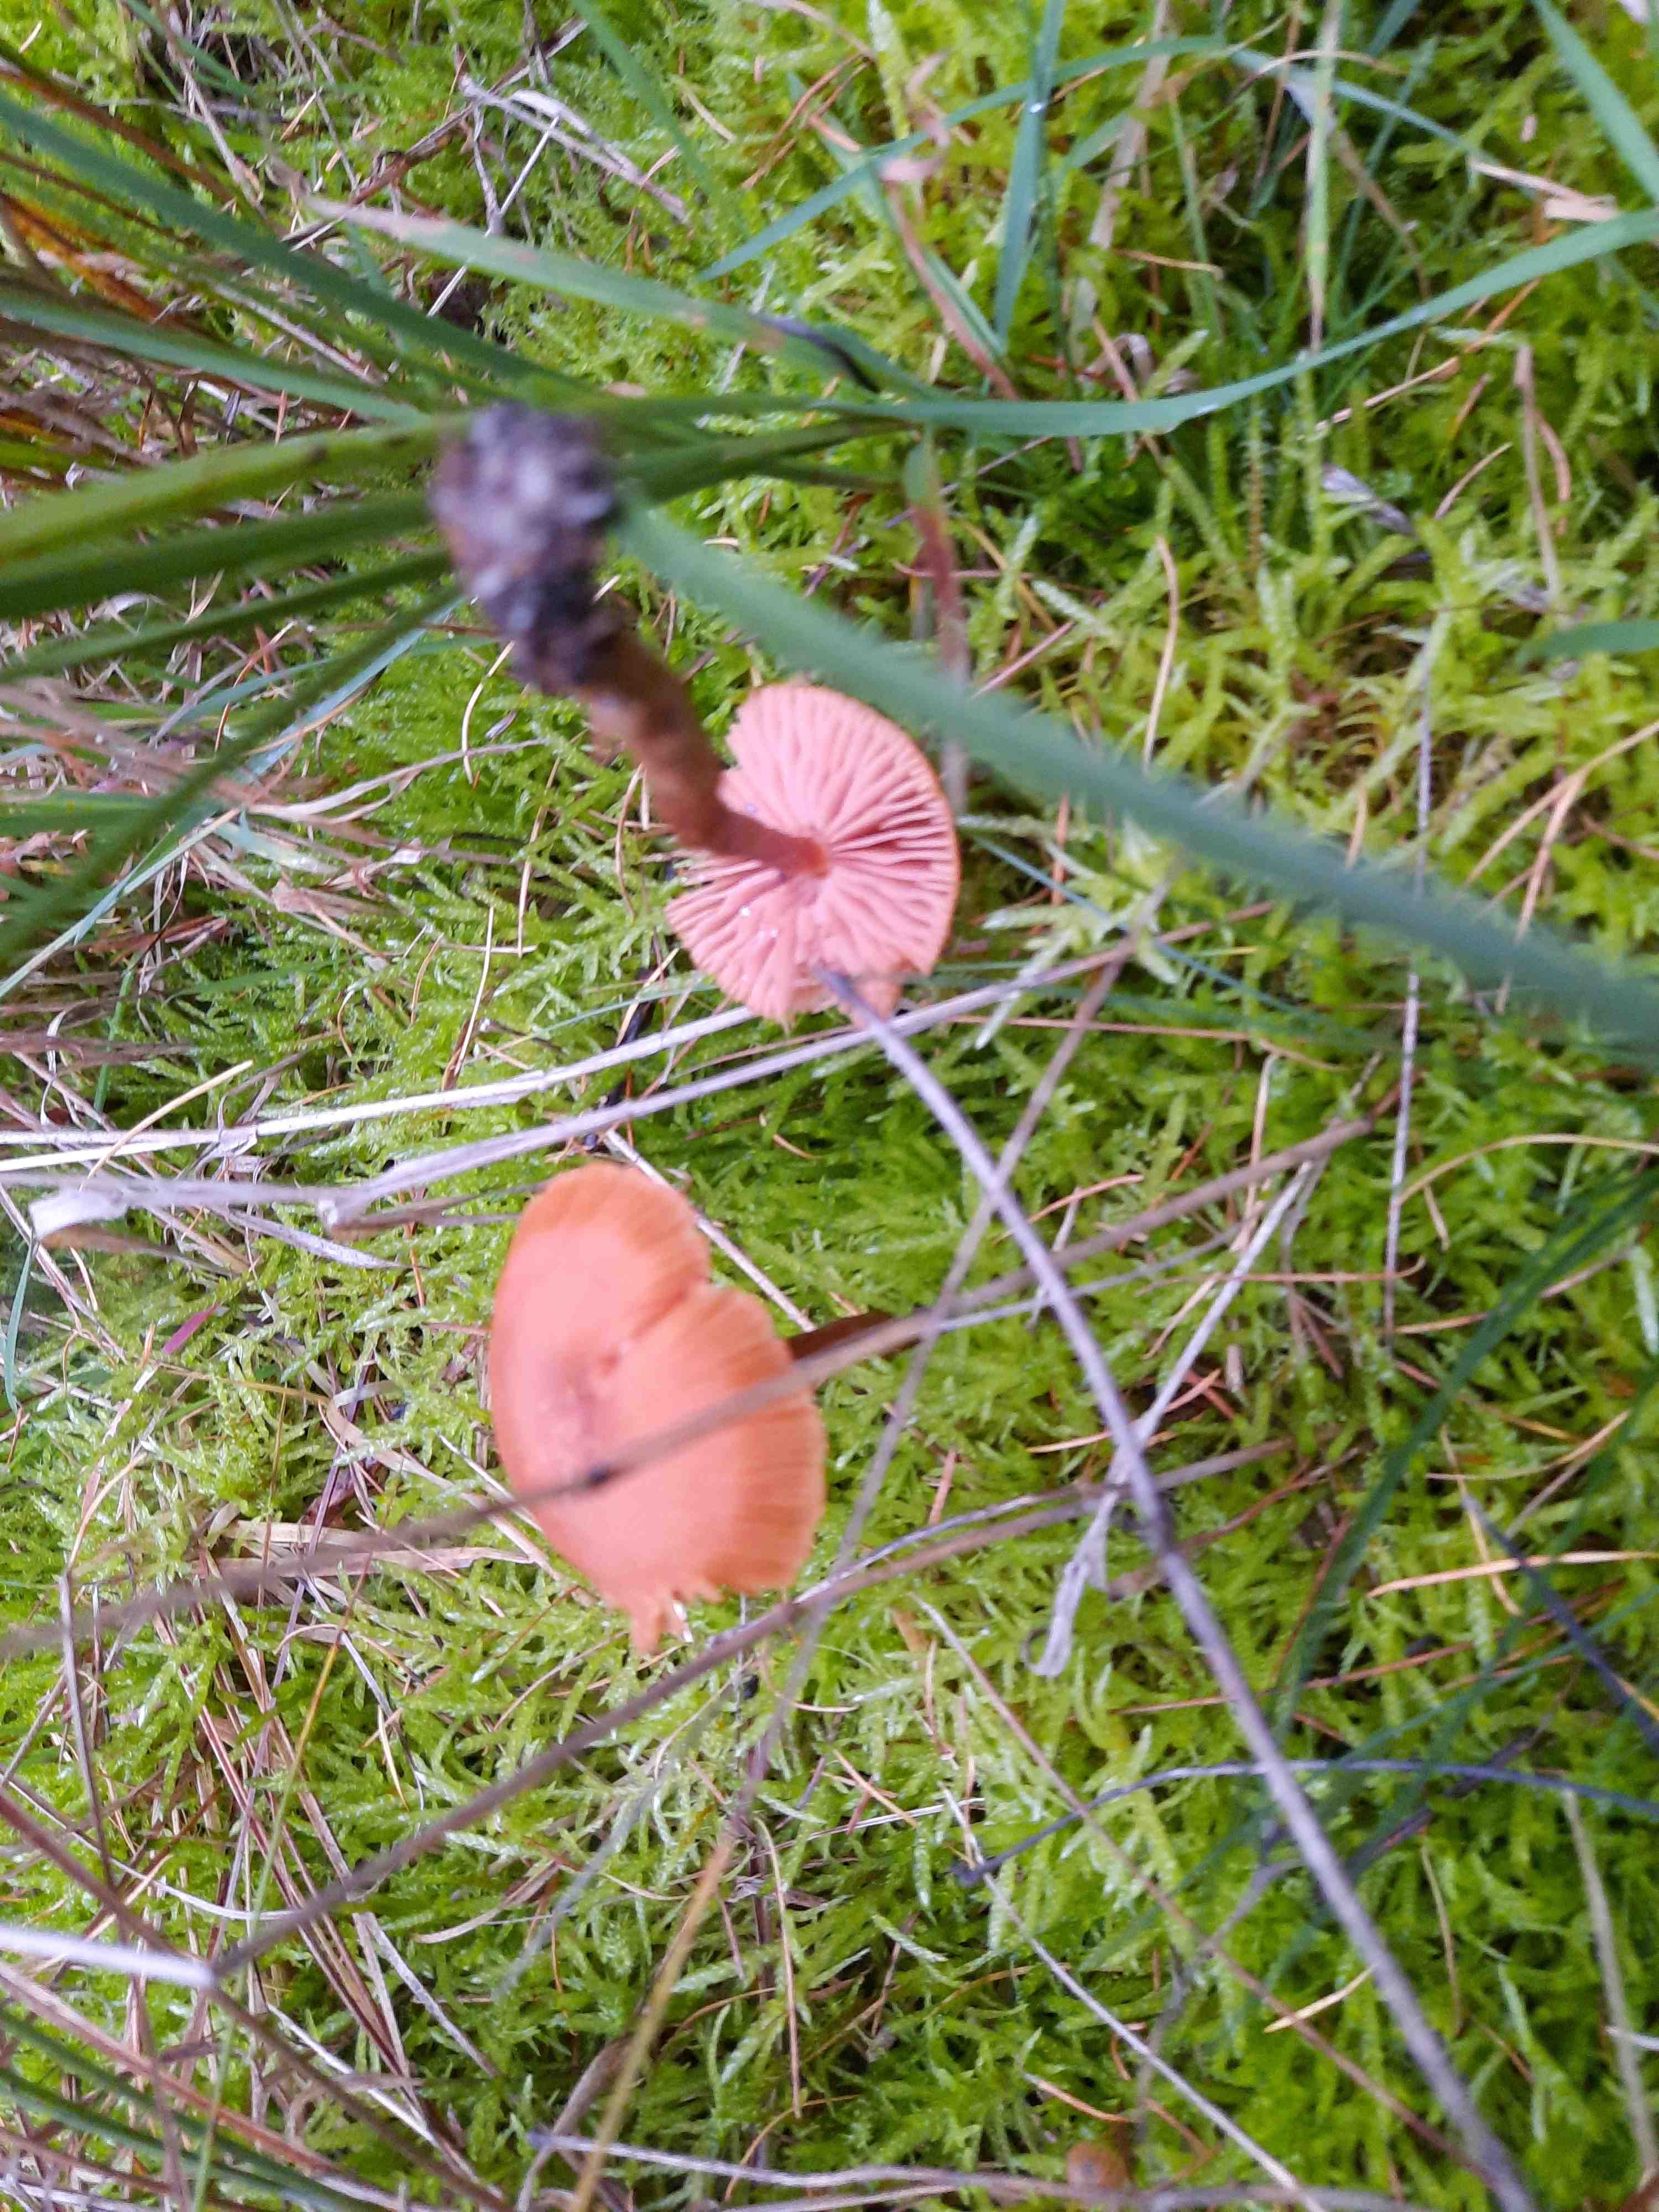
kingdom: Fungi
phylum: Basidiomycota
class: Agaricomycetes
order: Agaricales
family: Hydnangiaceae
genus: Laccaria
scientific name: Laccaria proxima
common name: stor ametysthat
